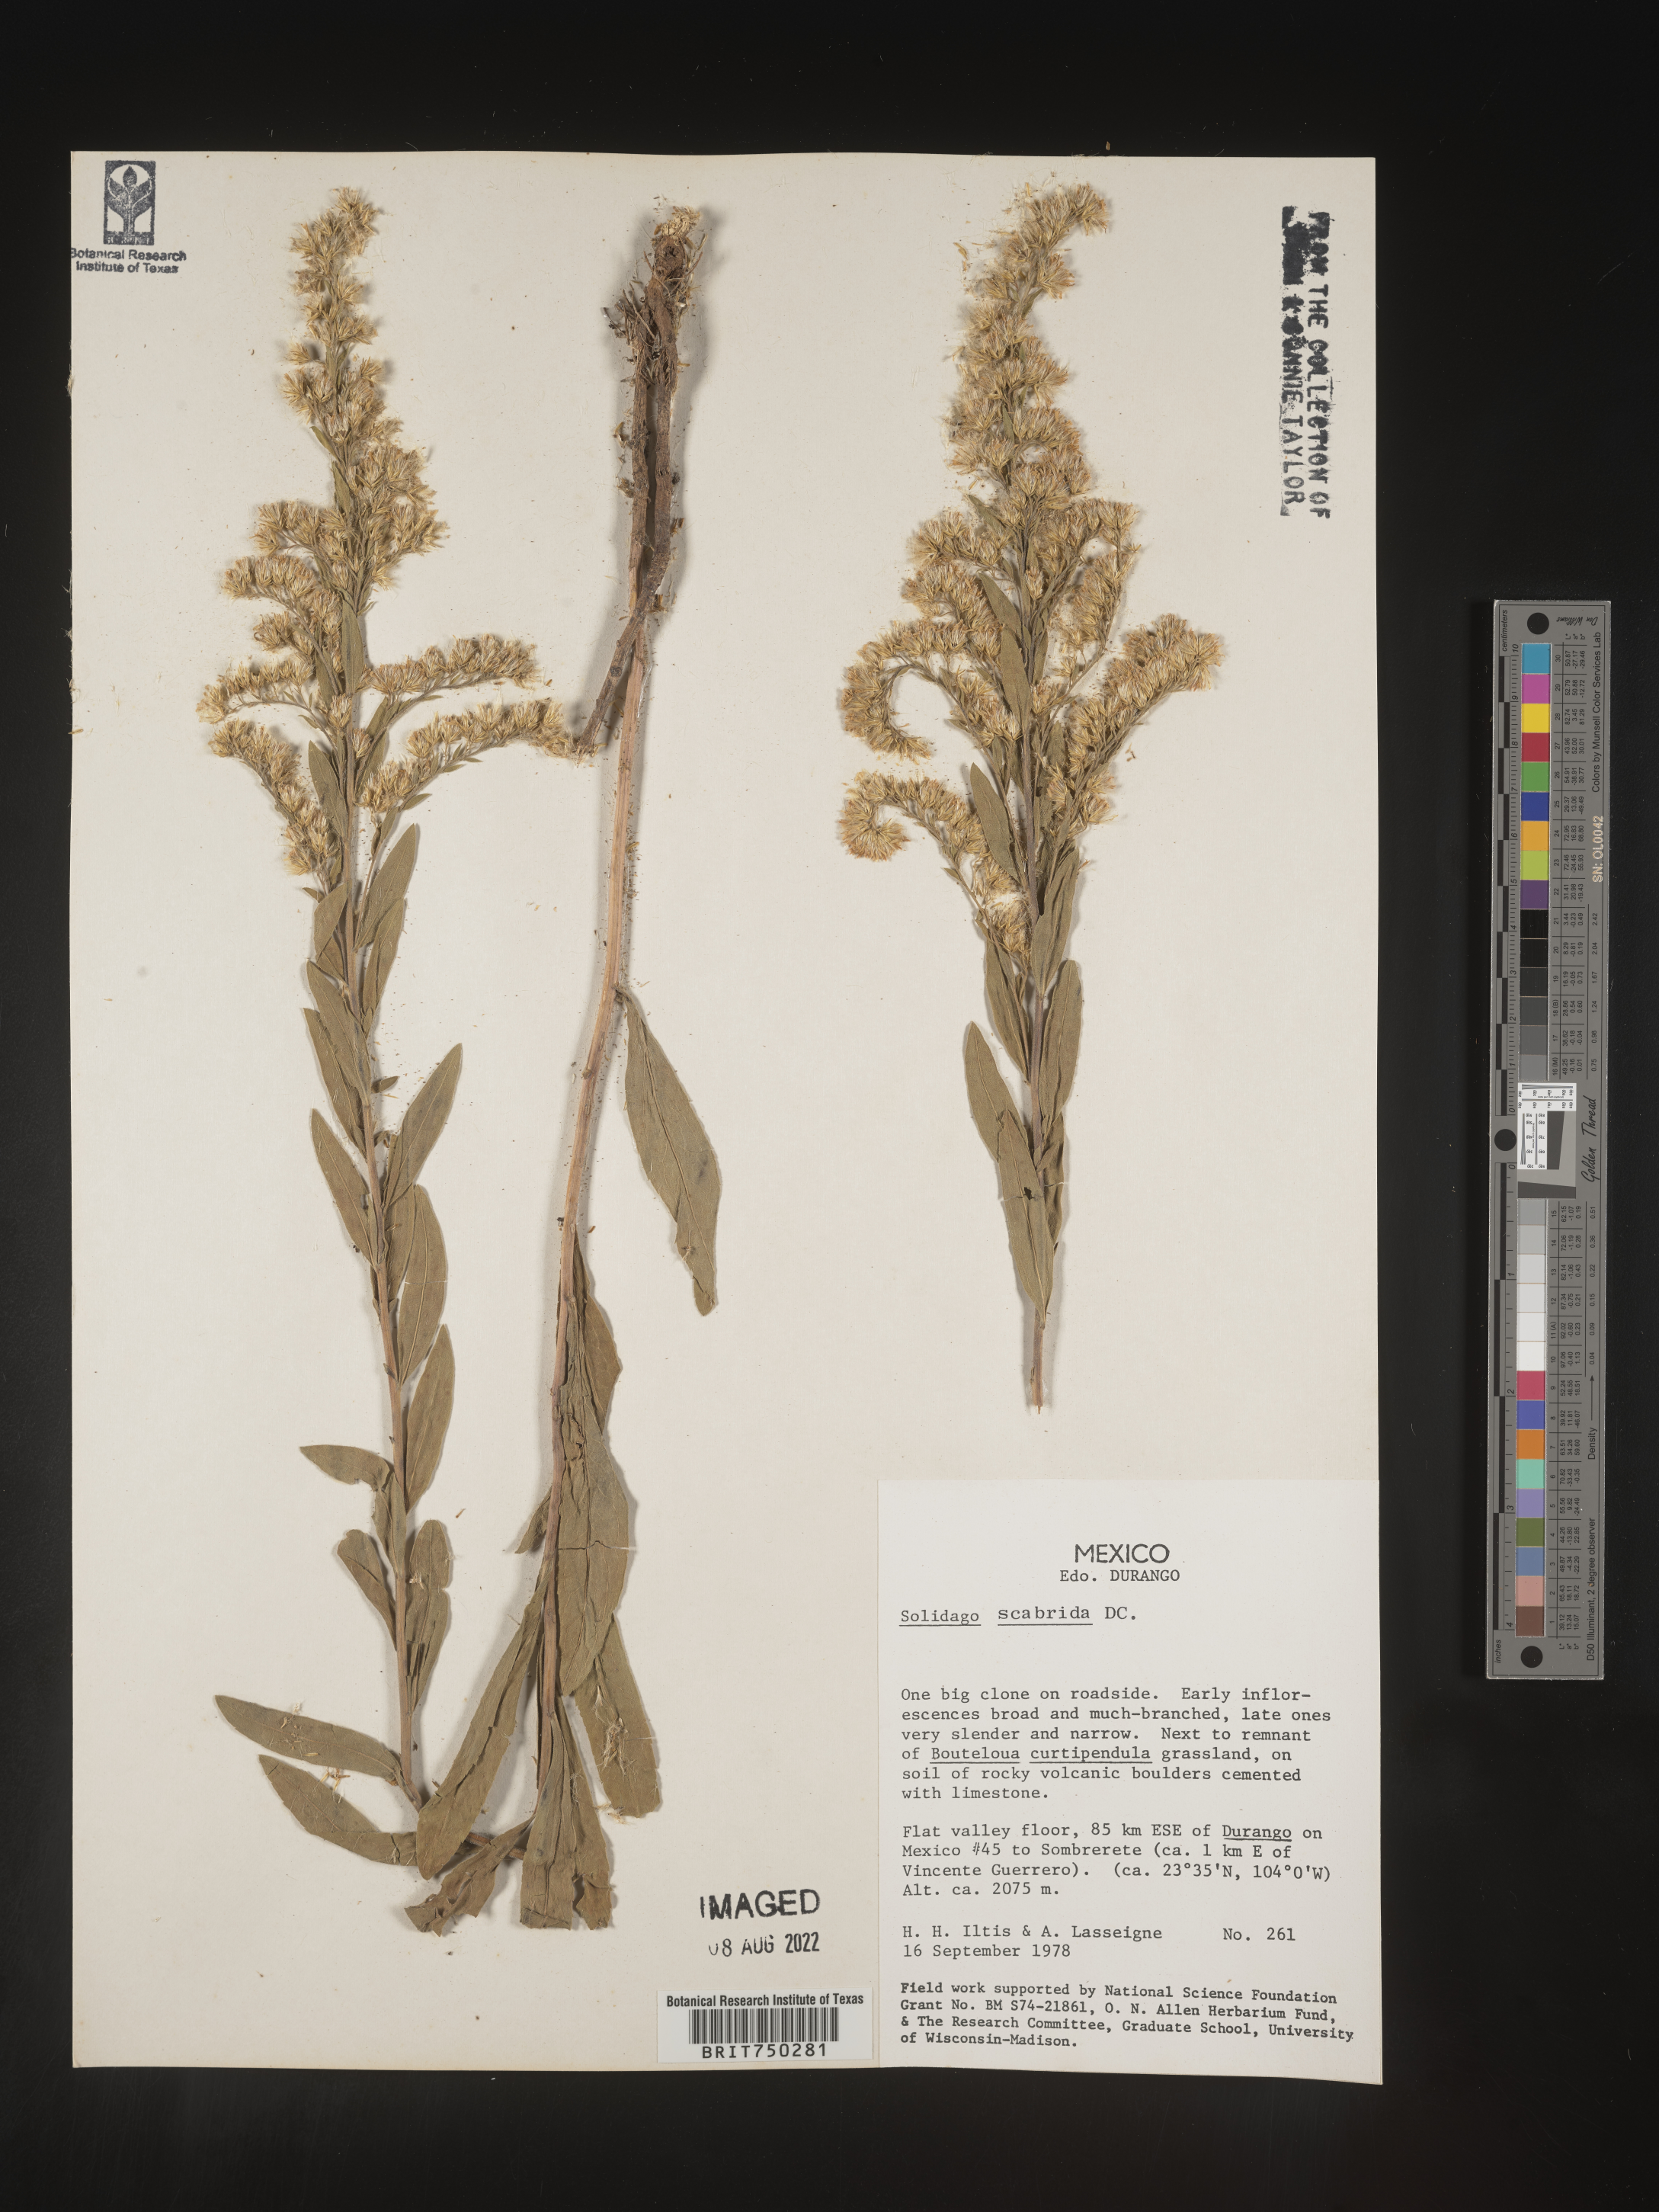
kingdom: Plantae
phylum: Tracheophyta
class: Magnoliopsida
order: Asterales
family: Asteraceae
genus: Solidago
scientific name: Solidago
